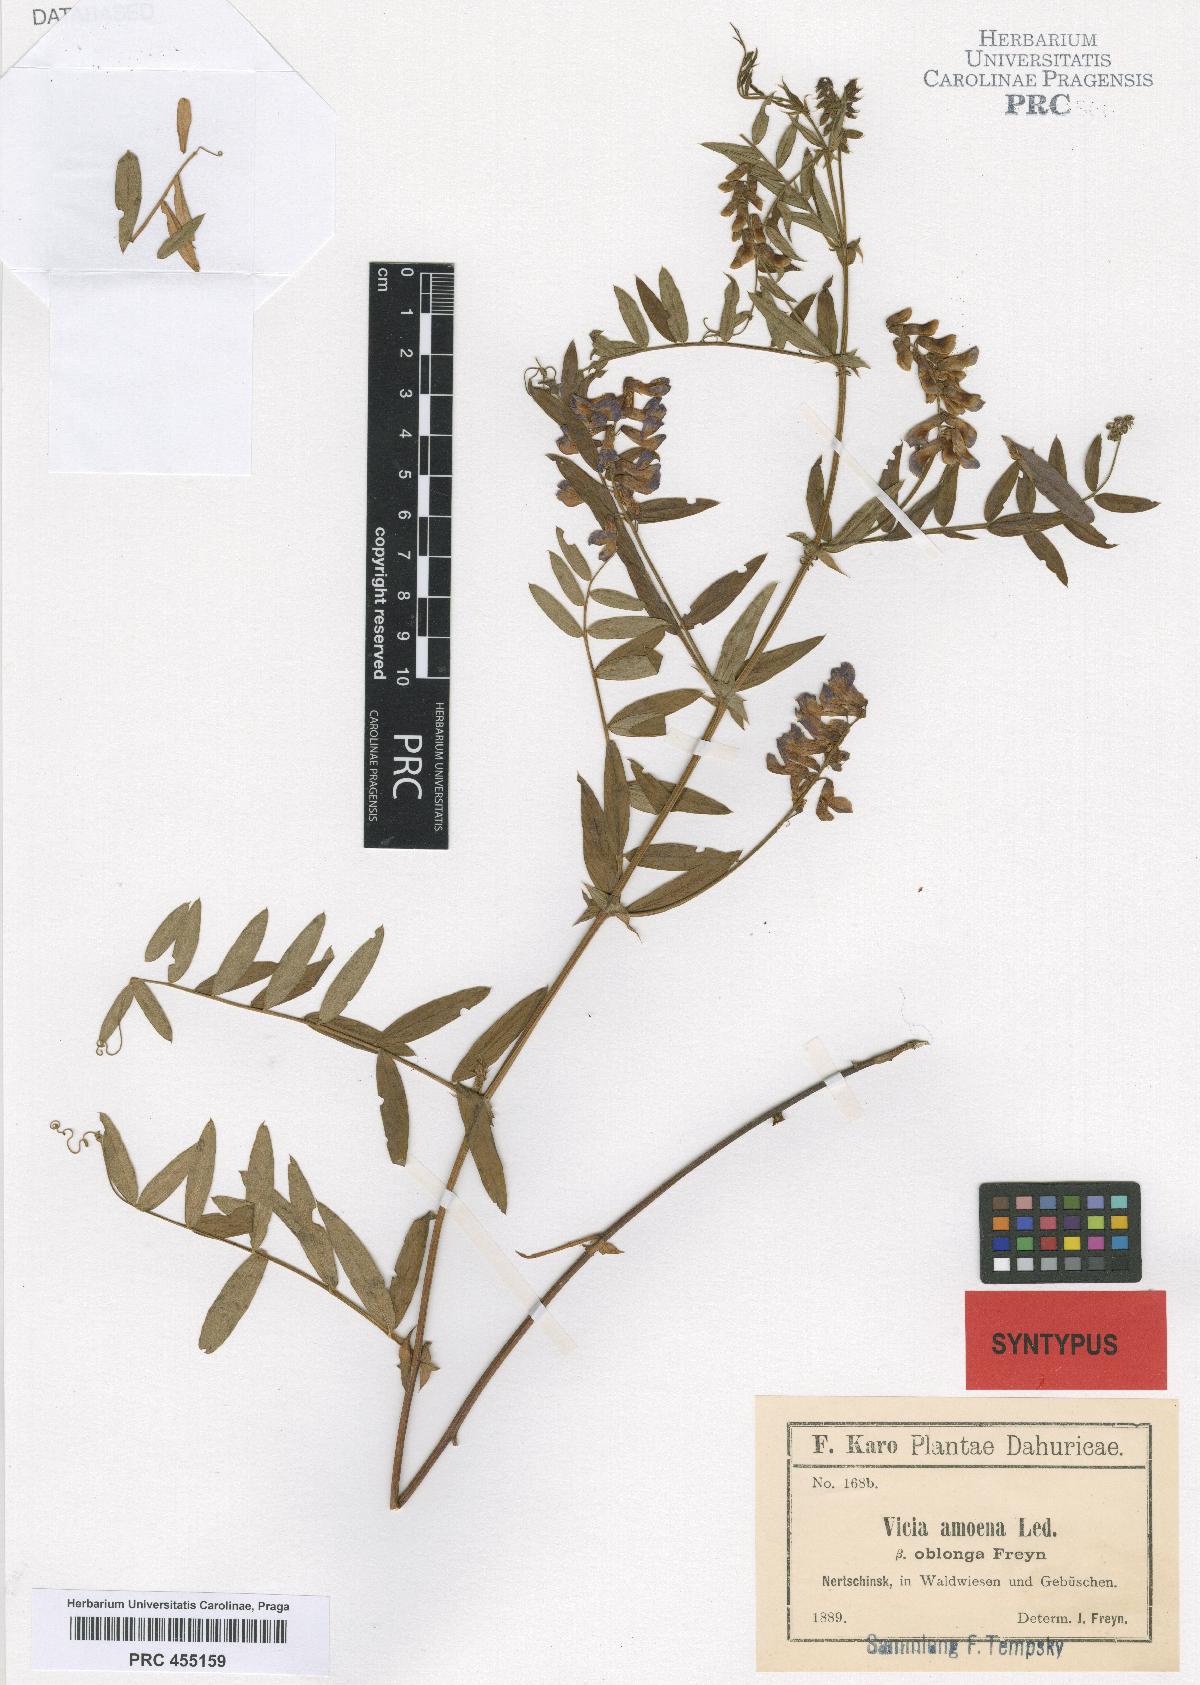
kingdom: Plantae
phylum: Tracheophyta
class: Magnoliopsida
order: Fabales
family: Fabaceae
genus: Vicia
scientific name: Vicia amoena
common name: Cheder ebs
